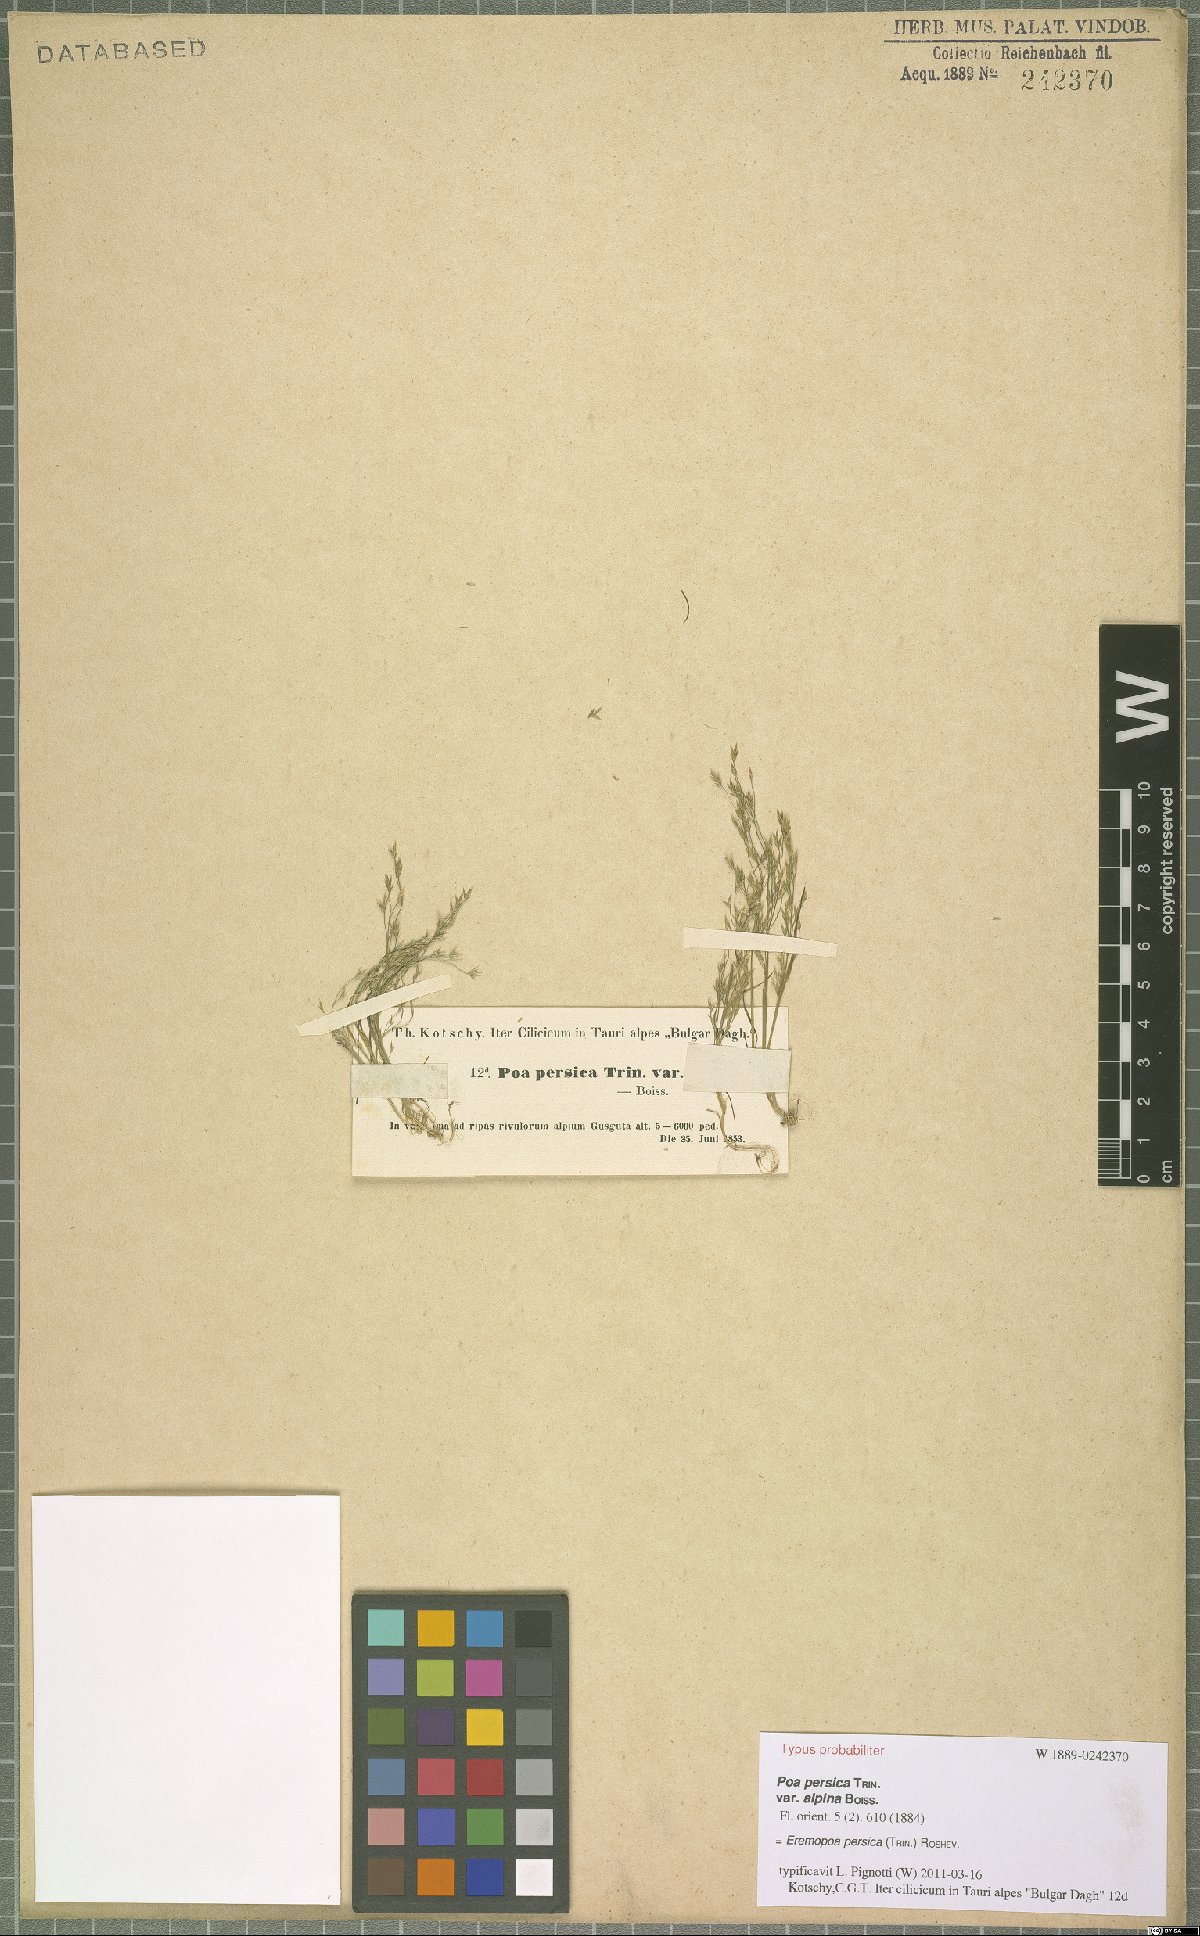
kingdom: Plantae
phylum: Tracheophyta
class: Liliopsida
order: Poales
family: Poaceae
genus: Poa
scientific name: Poa persica
